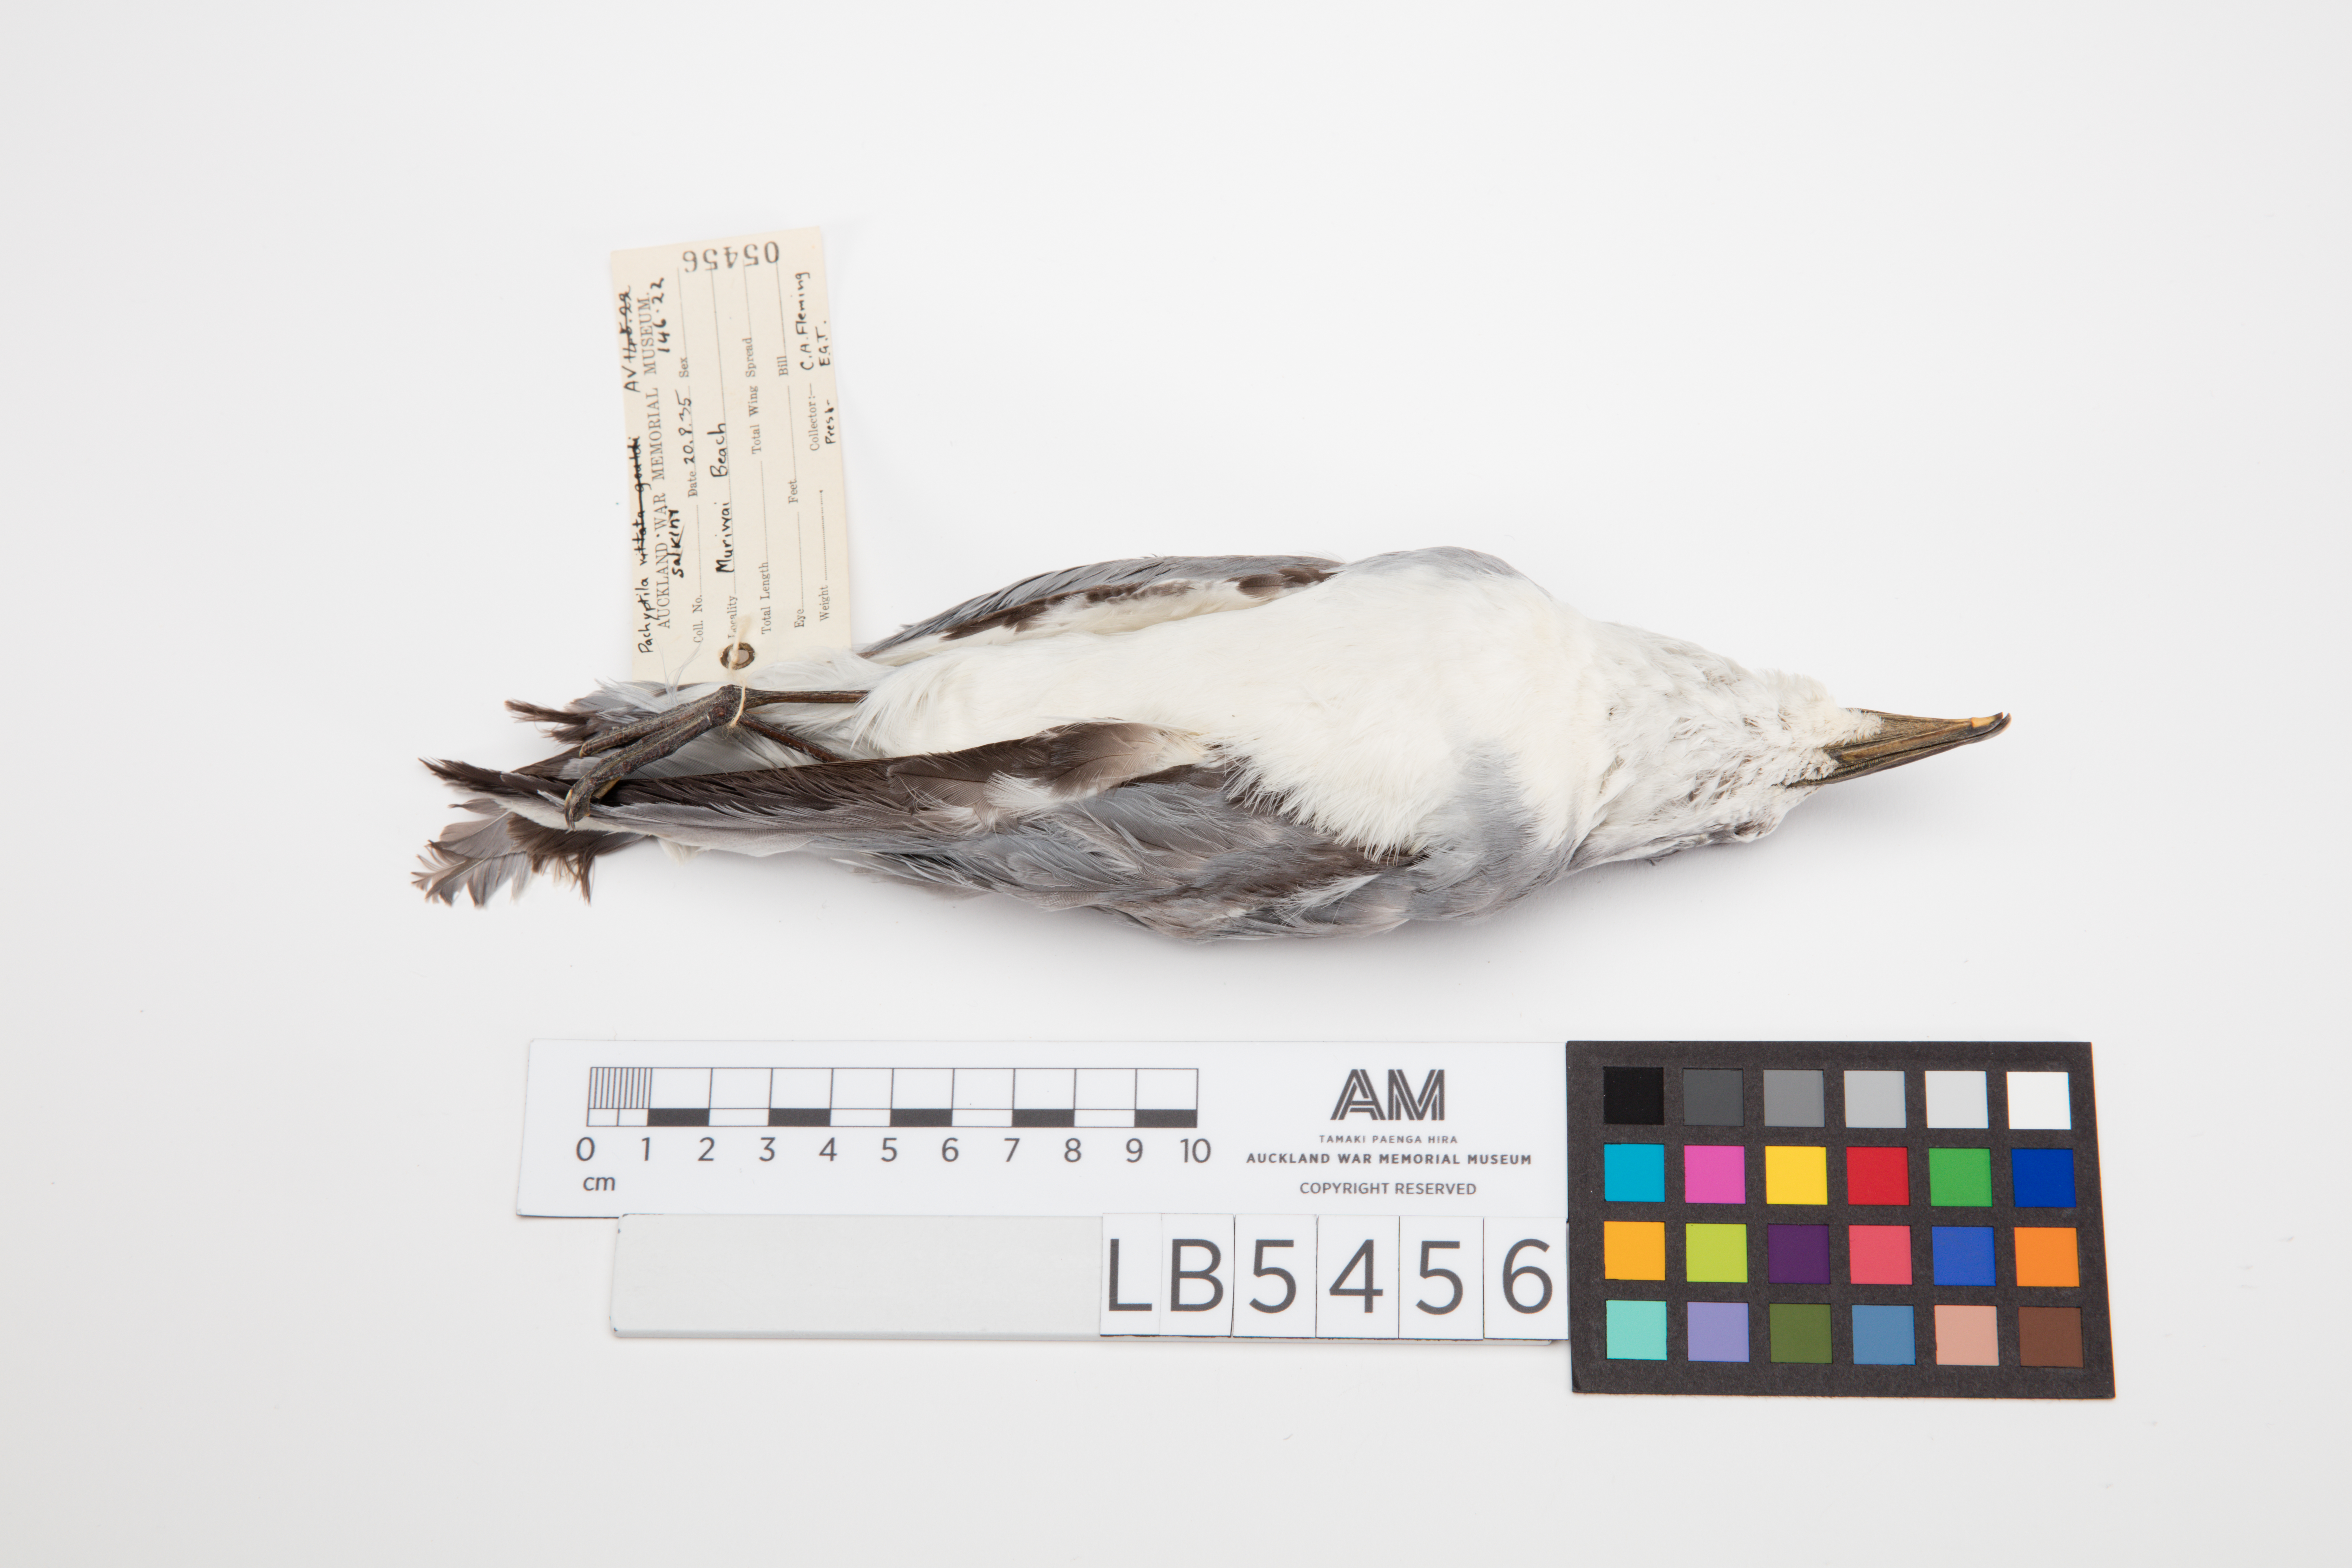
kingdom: Animalia
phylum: Chordata
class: Aves
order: Procellariiformes
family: Procellariidae
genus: Pachyptila
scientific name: Pachyptila salvini
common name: Salvin's prion
